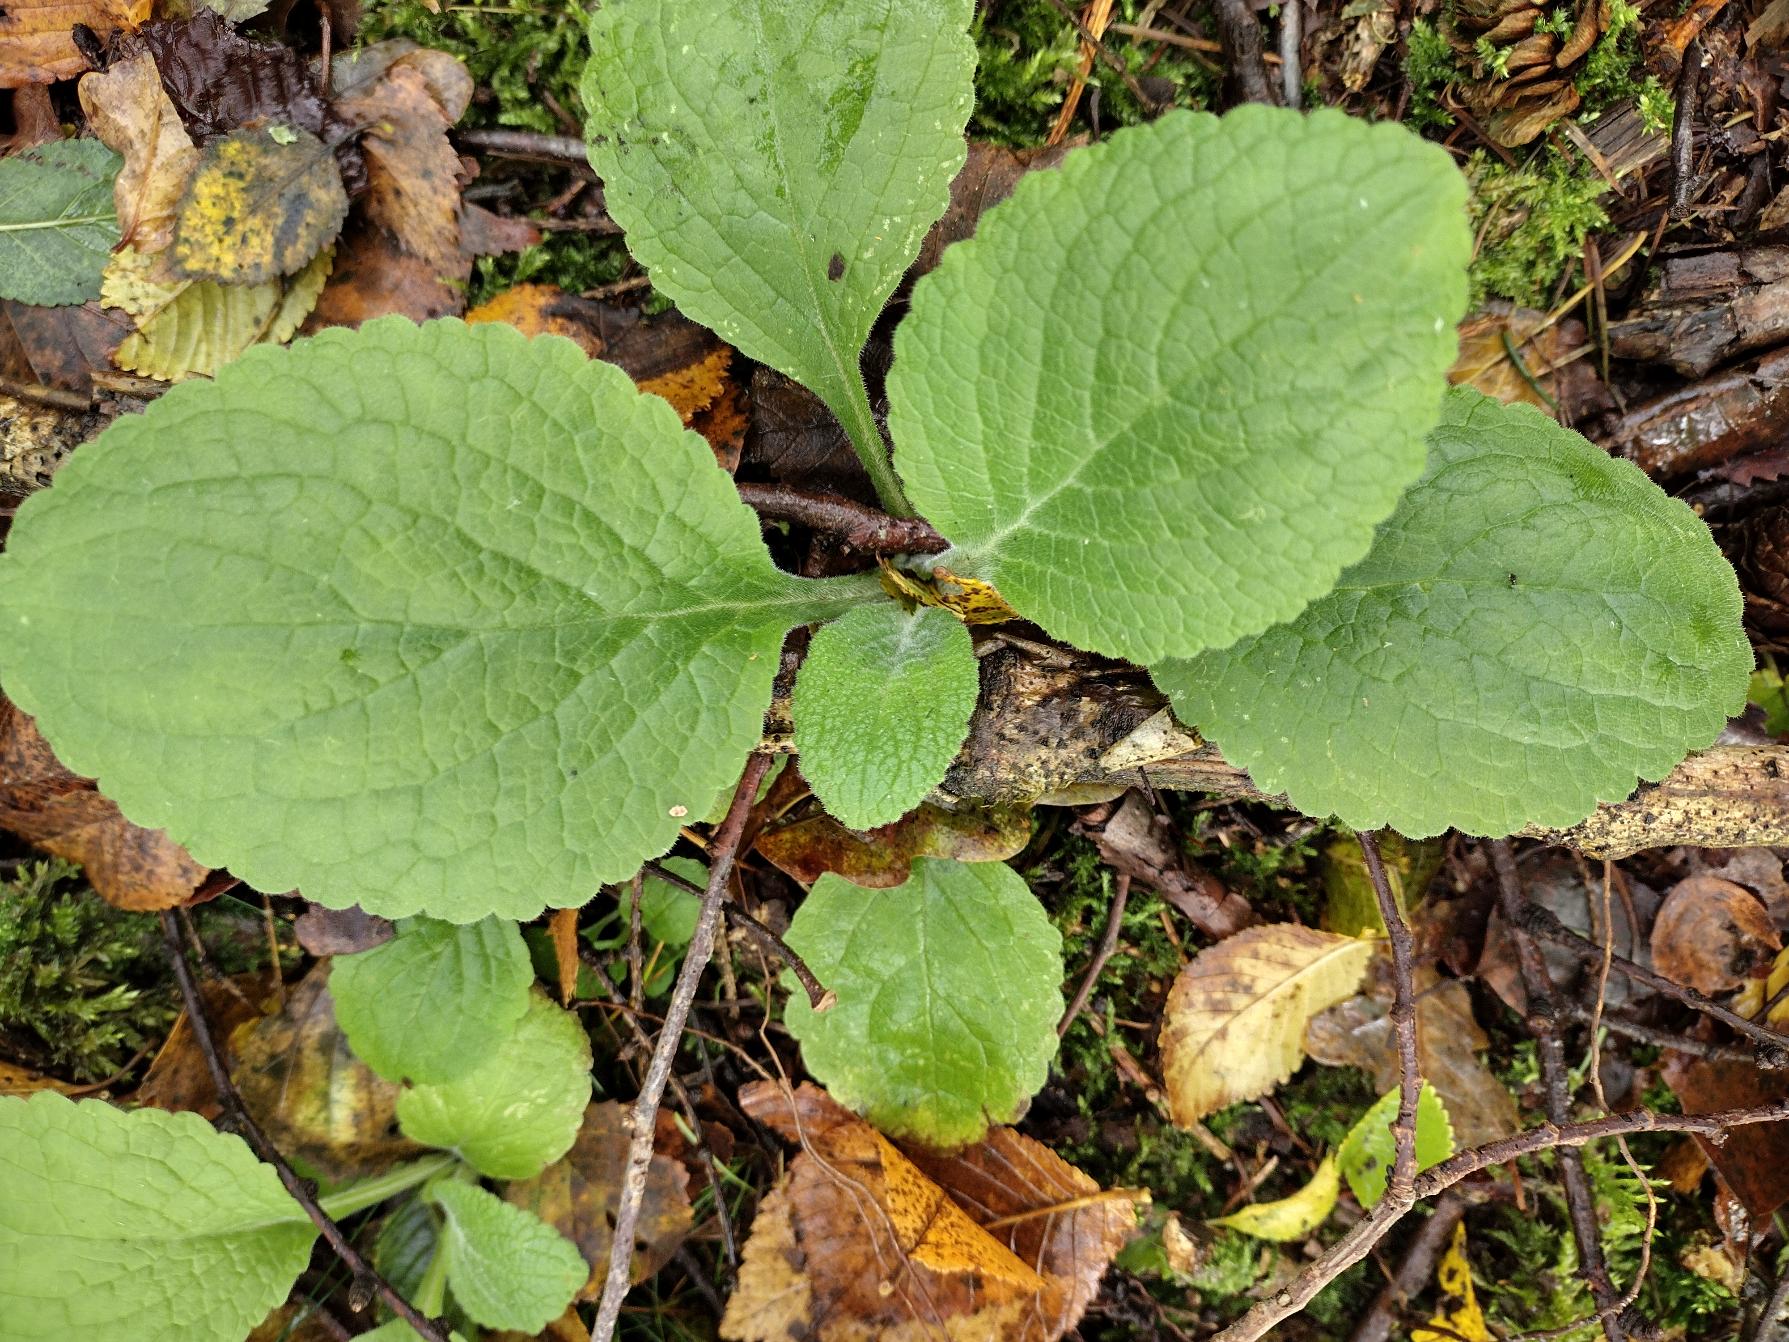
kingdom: Plantae
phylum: Tracheophyta
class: Magnoliopsida
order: Lamiales
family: Plantaginaceae
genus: Digitalis
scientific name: Digitalis purpurea
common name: Almindelig fingerbøl
